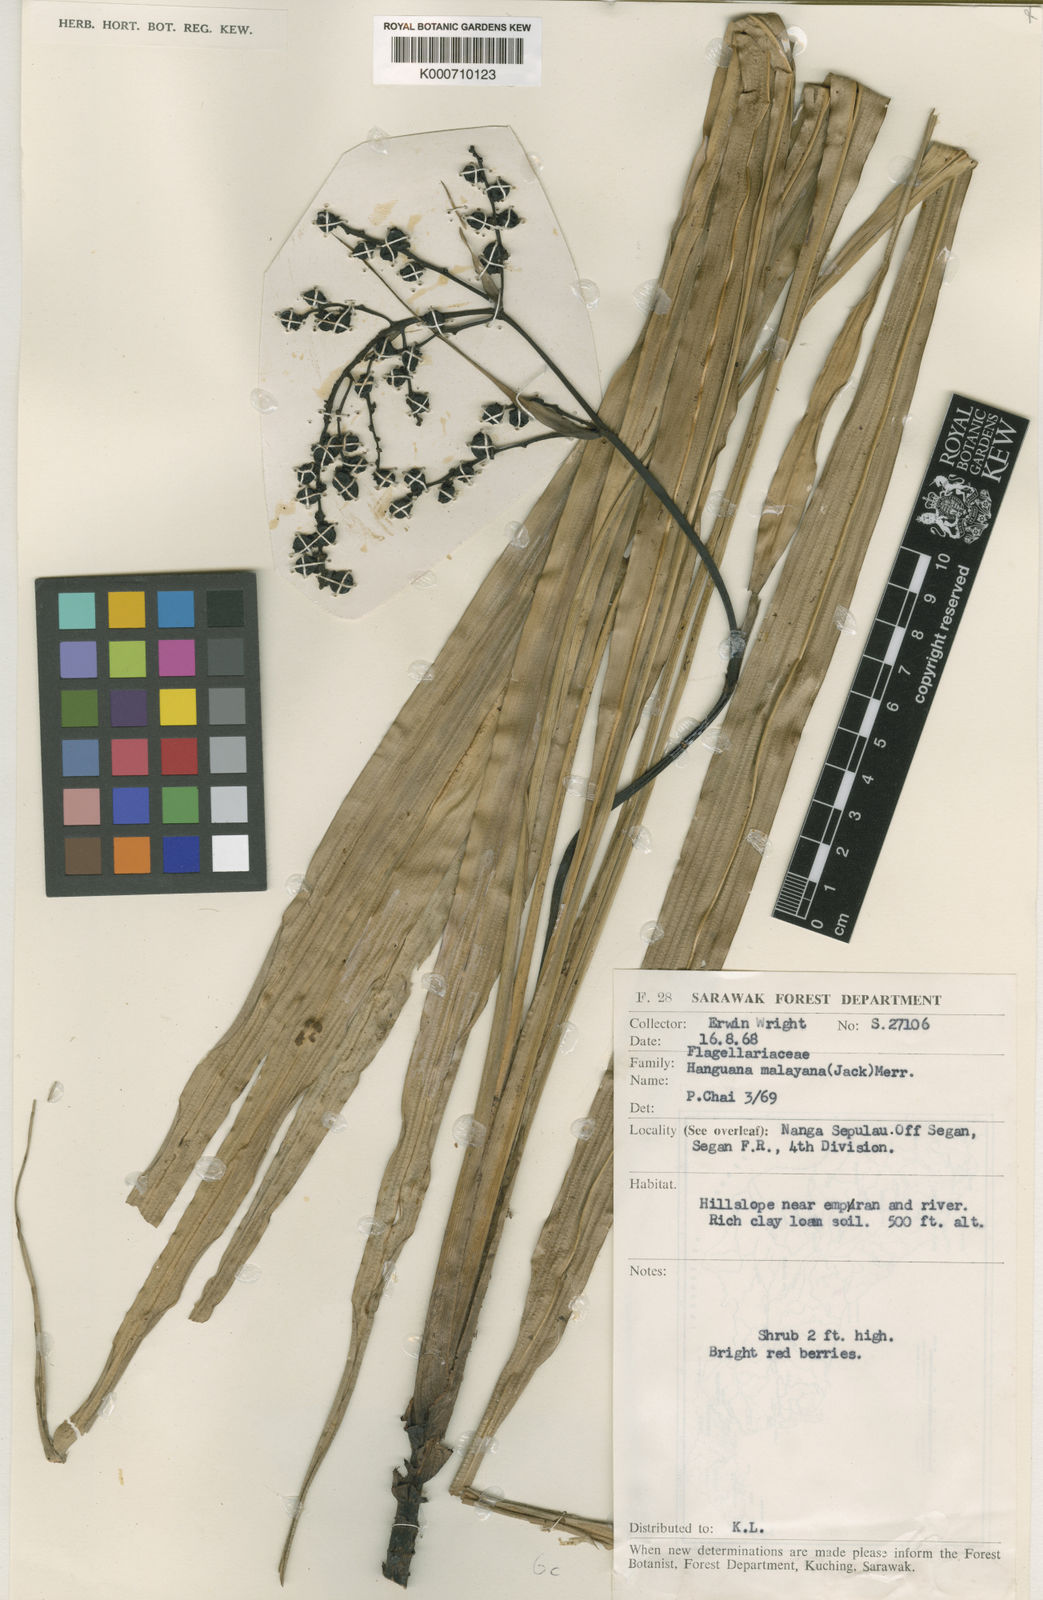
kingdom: Plantae
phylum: Tracheophyta
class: Liliopsida
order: Commelinales
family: Hanguanaceae
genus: Hanguana
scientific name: Hanguana malayana
